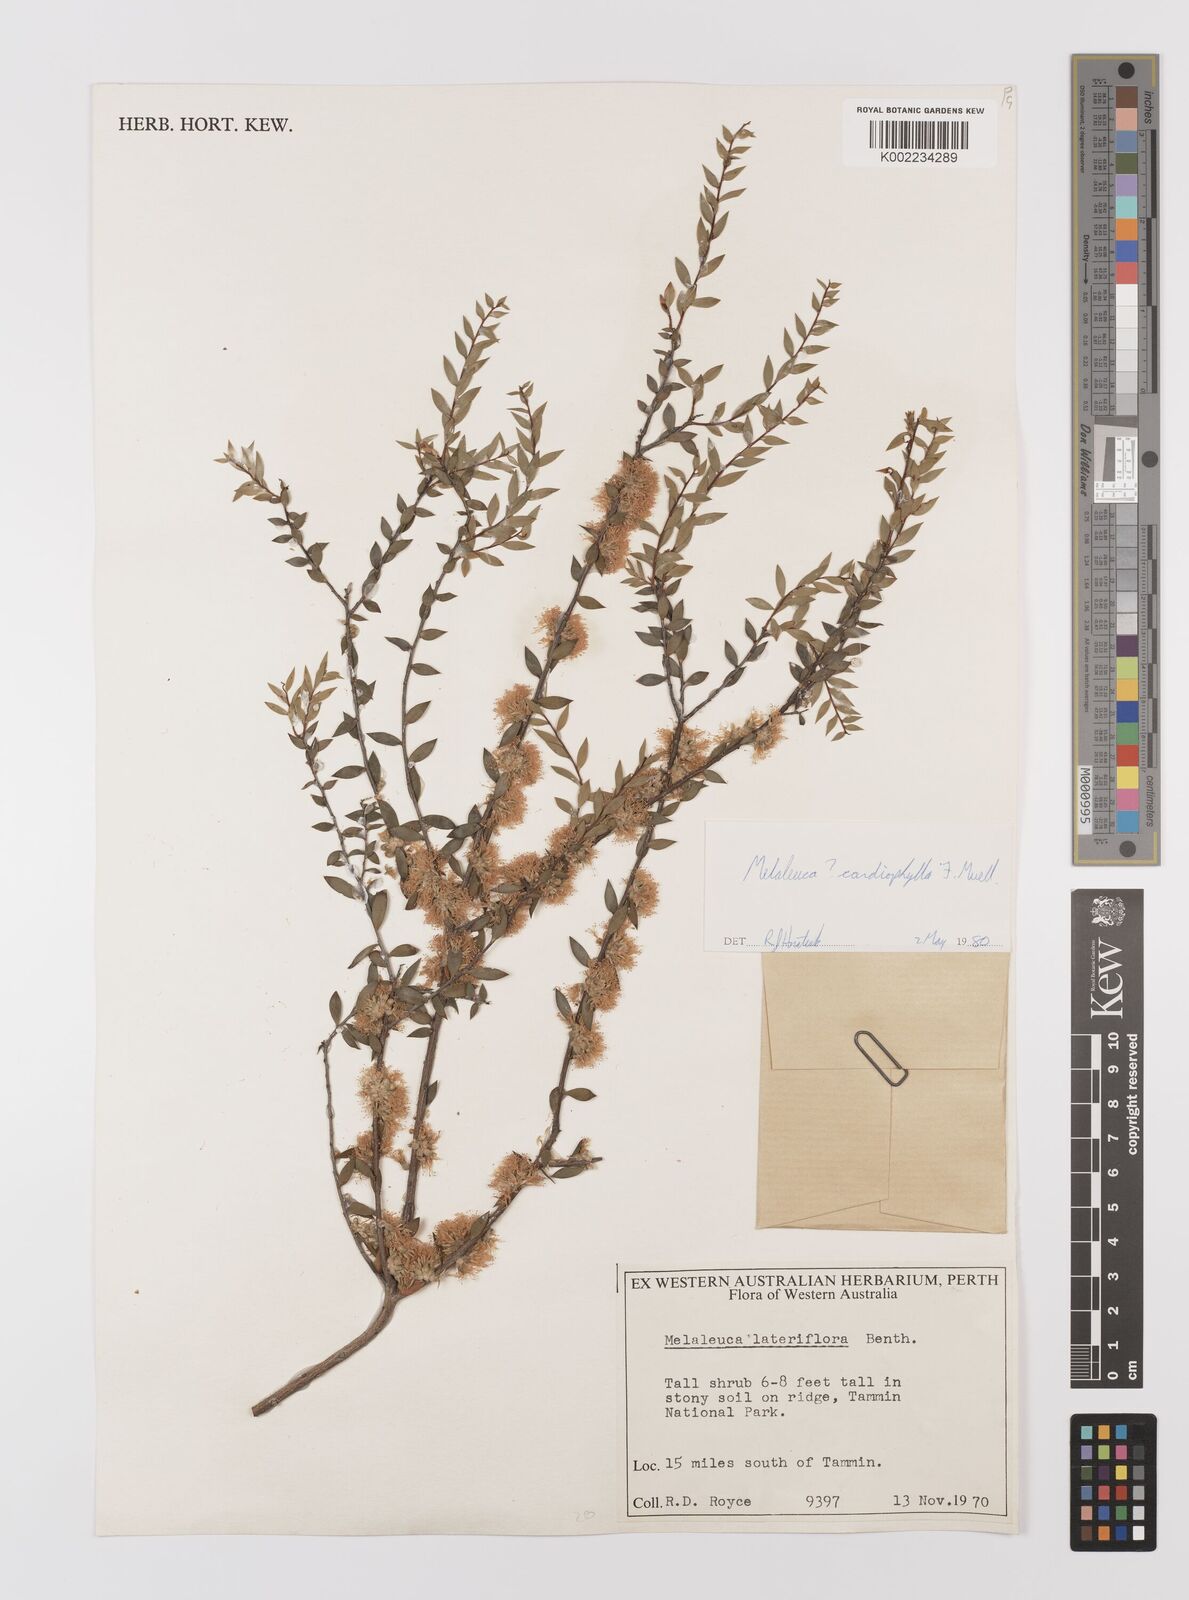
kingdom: Plantae
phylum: Tracheophyta
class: Magnoliopsida
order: Myrtales
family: Myrtaceae
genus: Melaleuca
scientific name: Melaleuca cardiophylla
